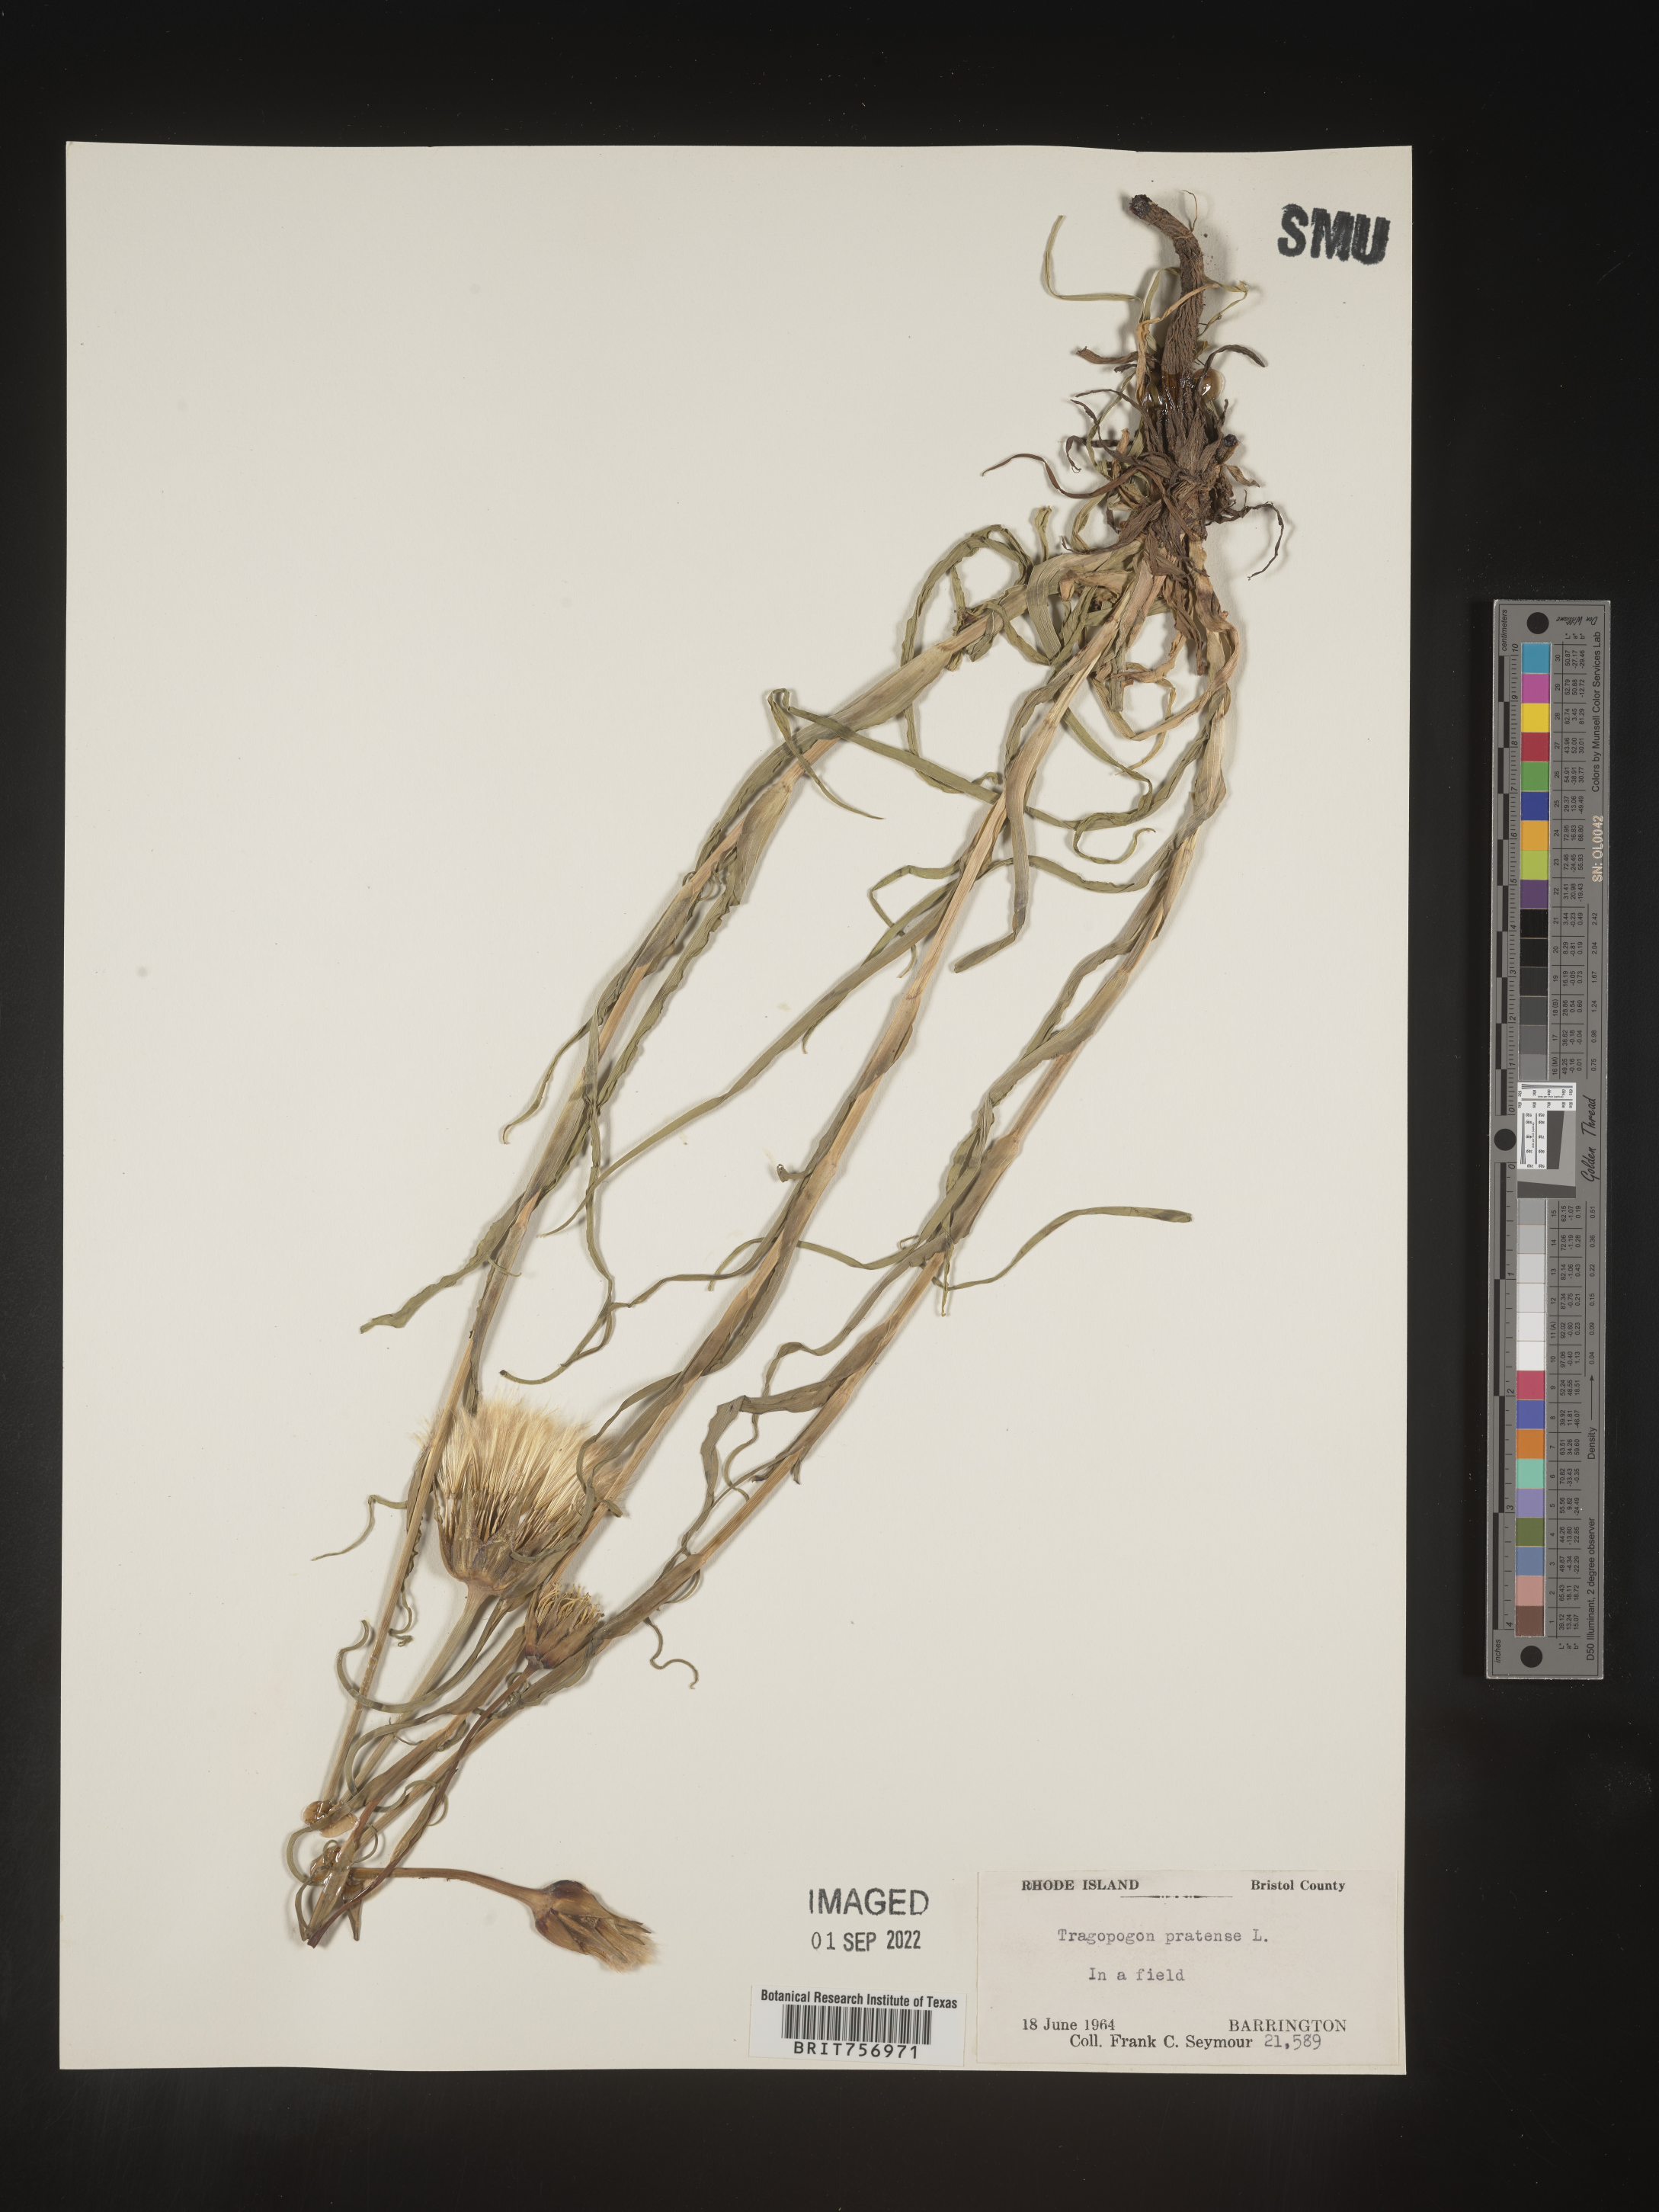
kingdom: Plantae
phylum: Tracheophyta
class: Magnoliopsida
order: Asterales
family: Asteraceae
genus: Tragopogon
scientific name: Tragopogon pratensis
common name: Goat's-beard
